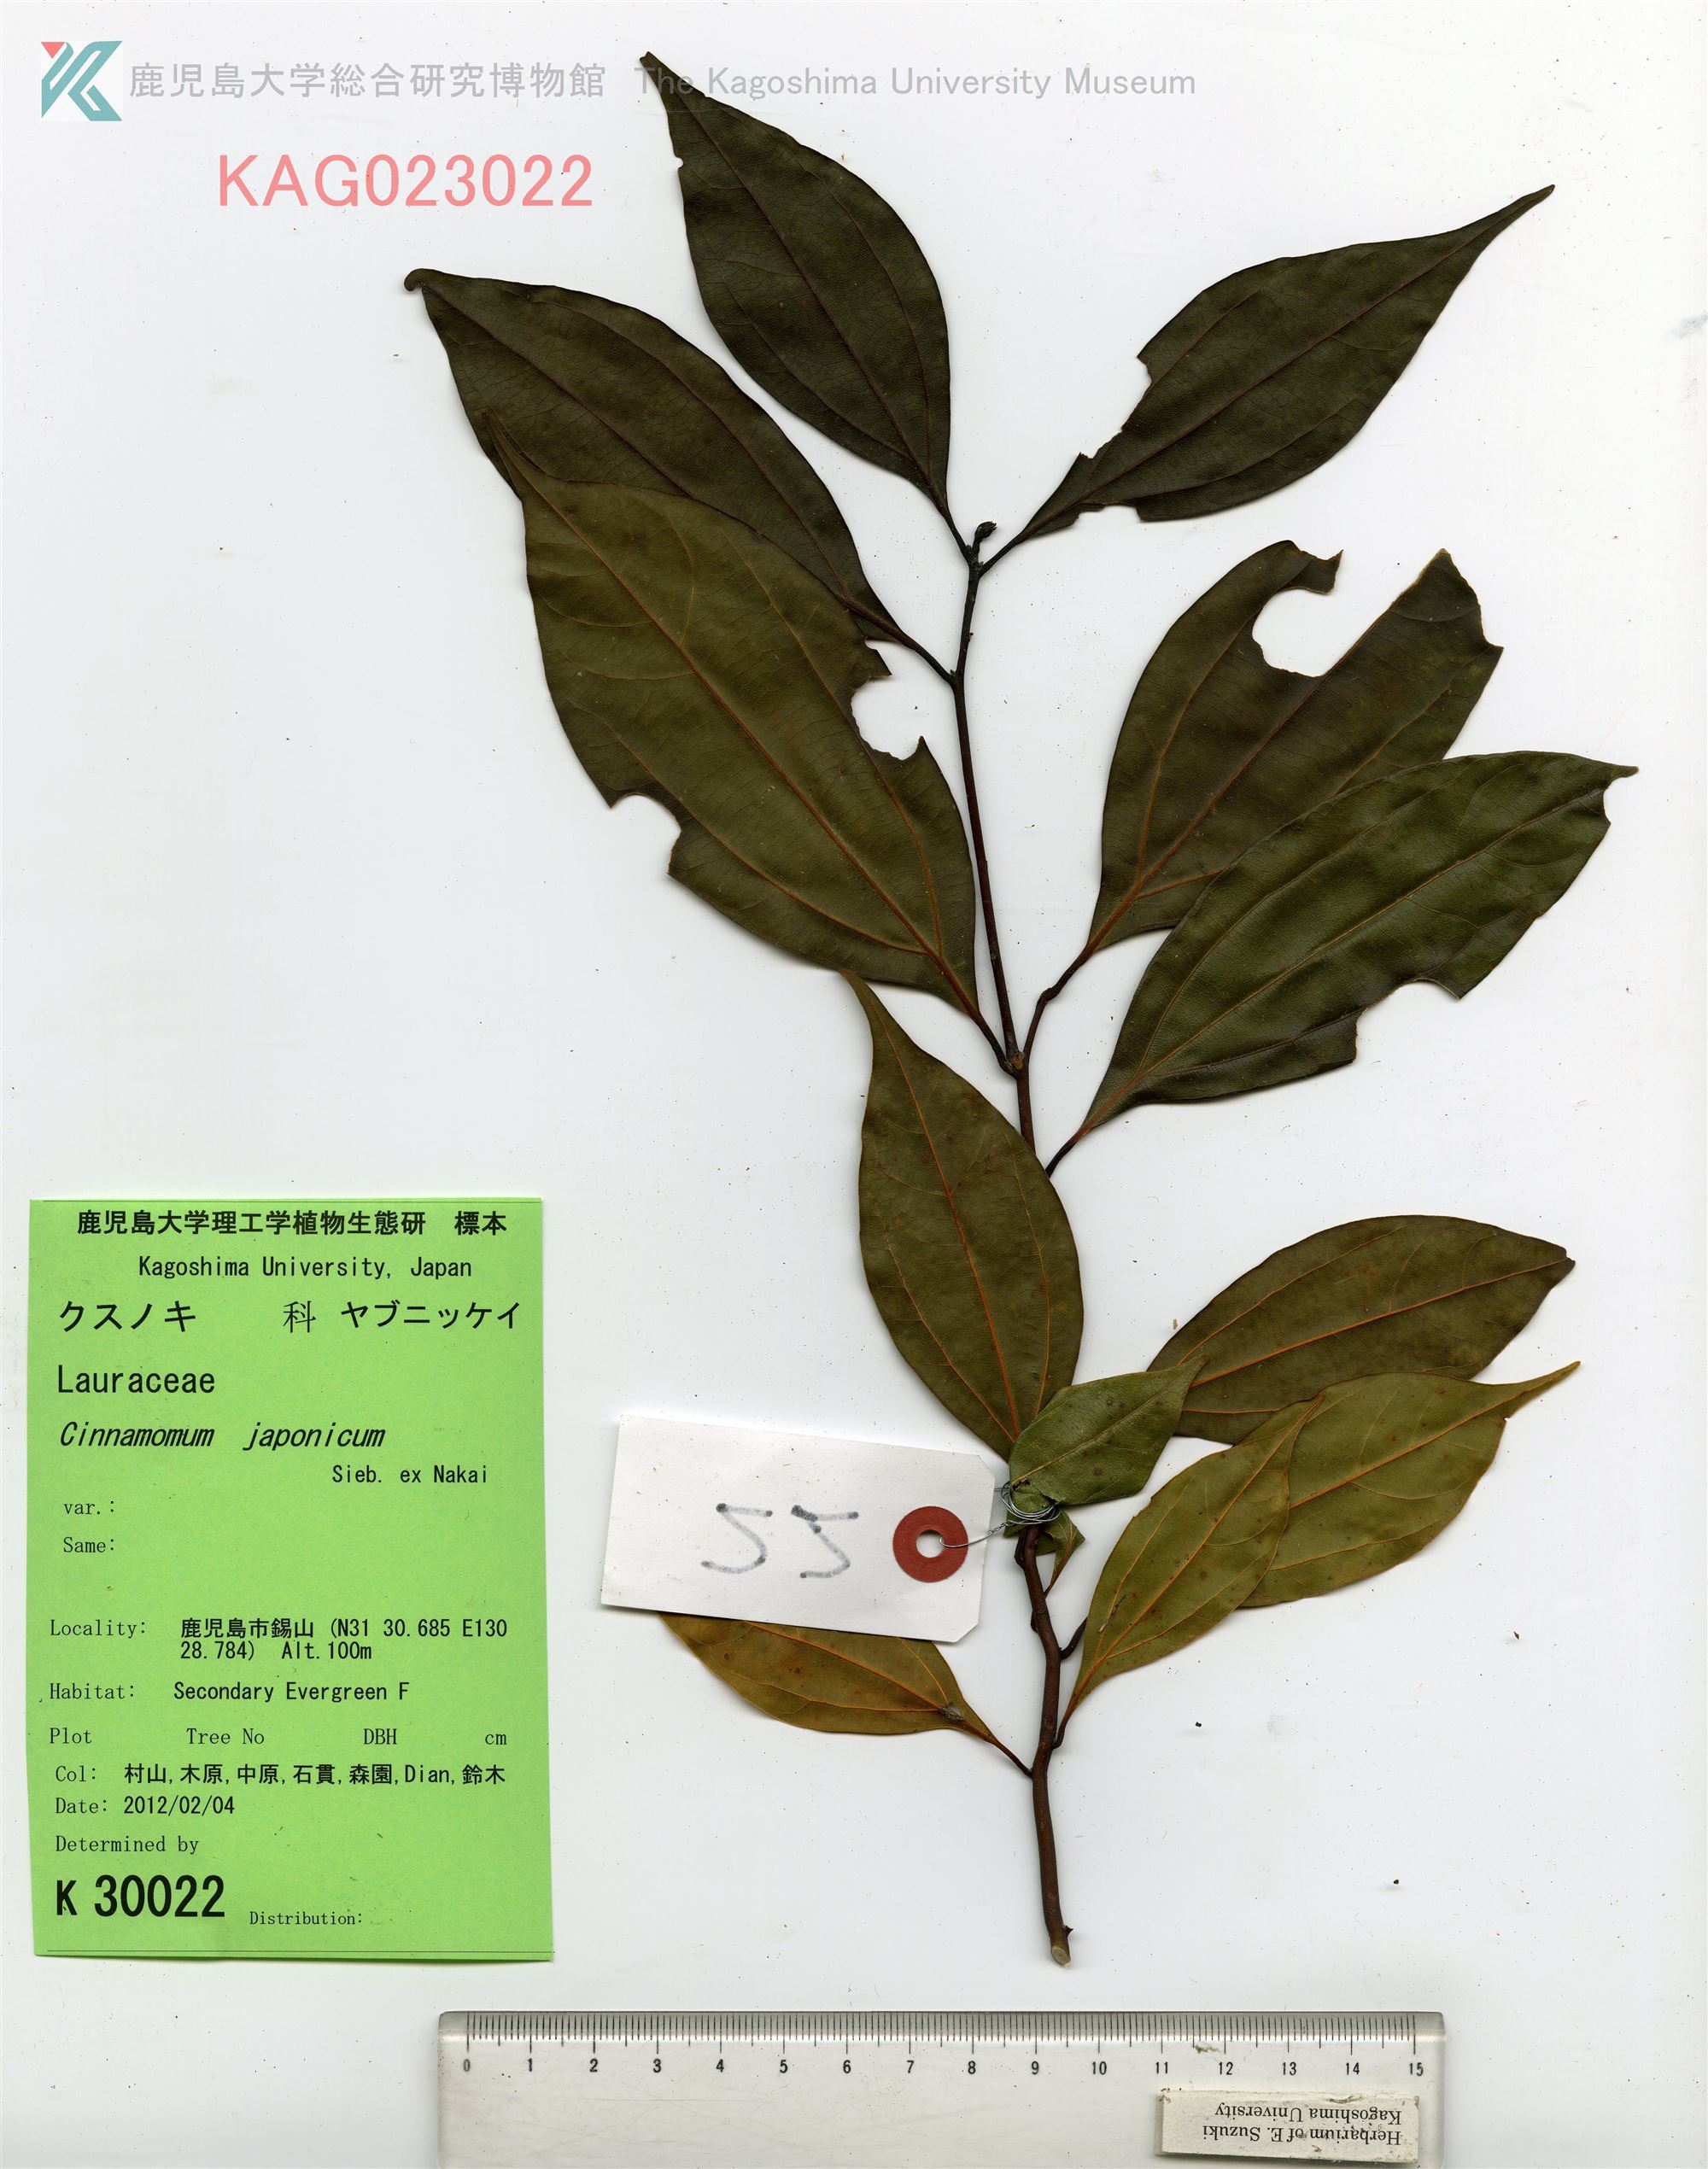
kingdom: Plantae
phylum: Tracheophyta
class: Magnoliopsida
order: Laurales
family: Lauraceae
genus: Cinnamomum
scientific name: Cinnamomum chekiangense
